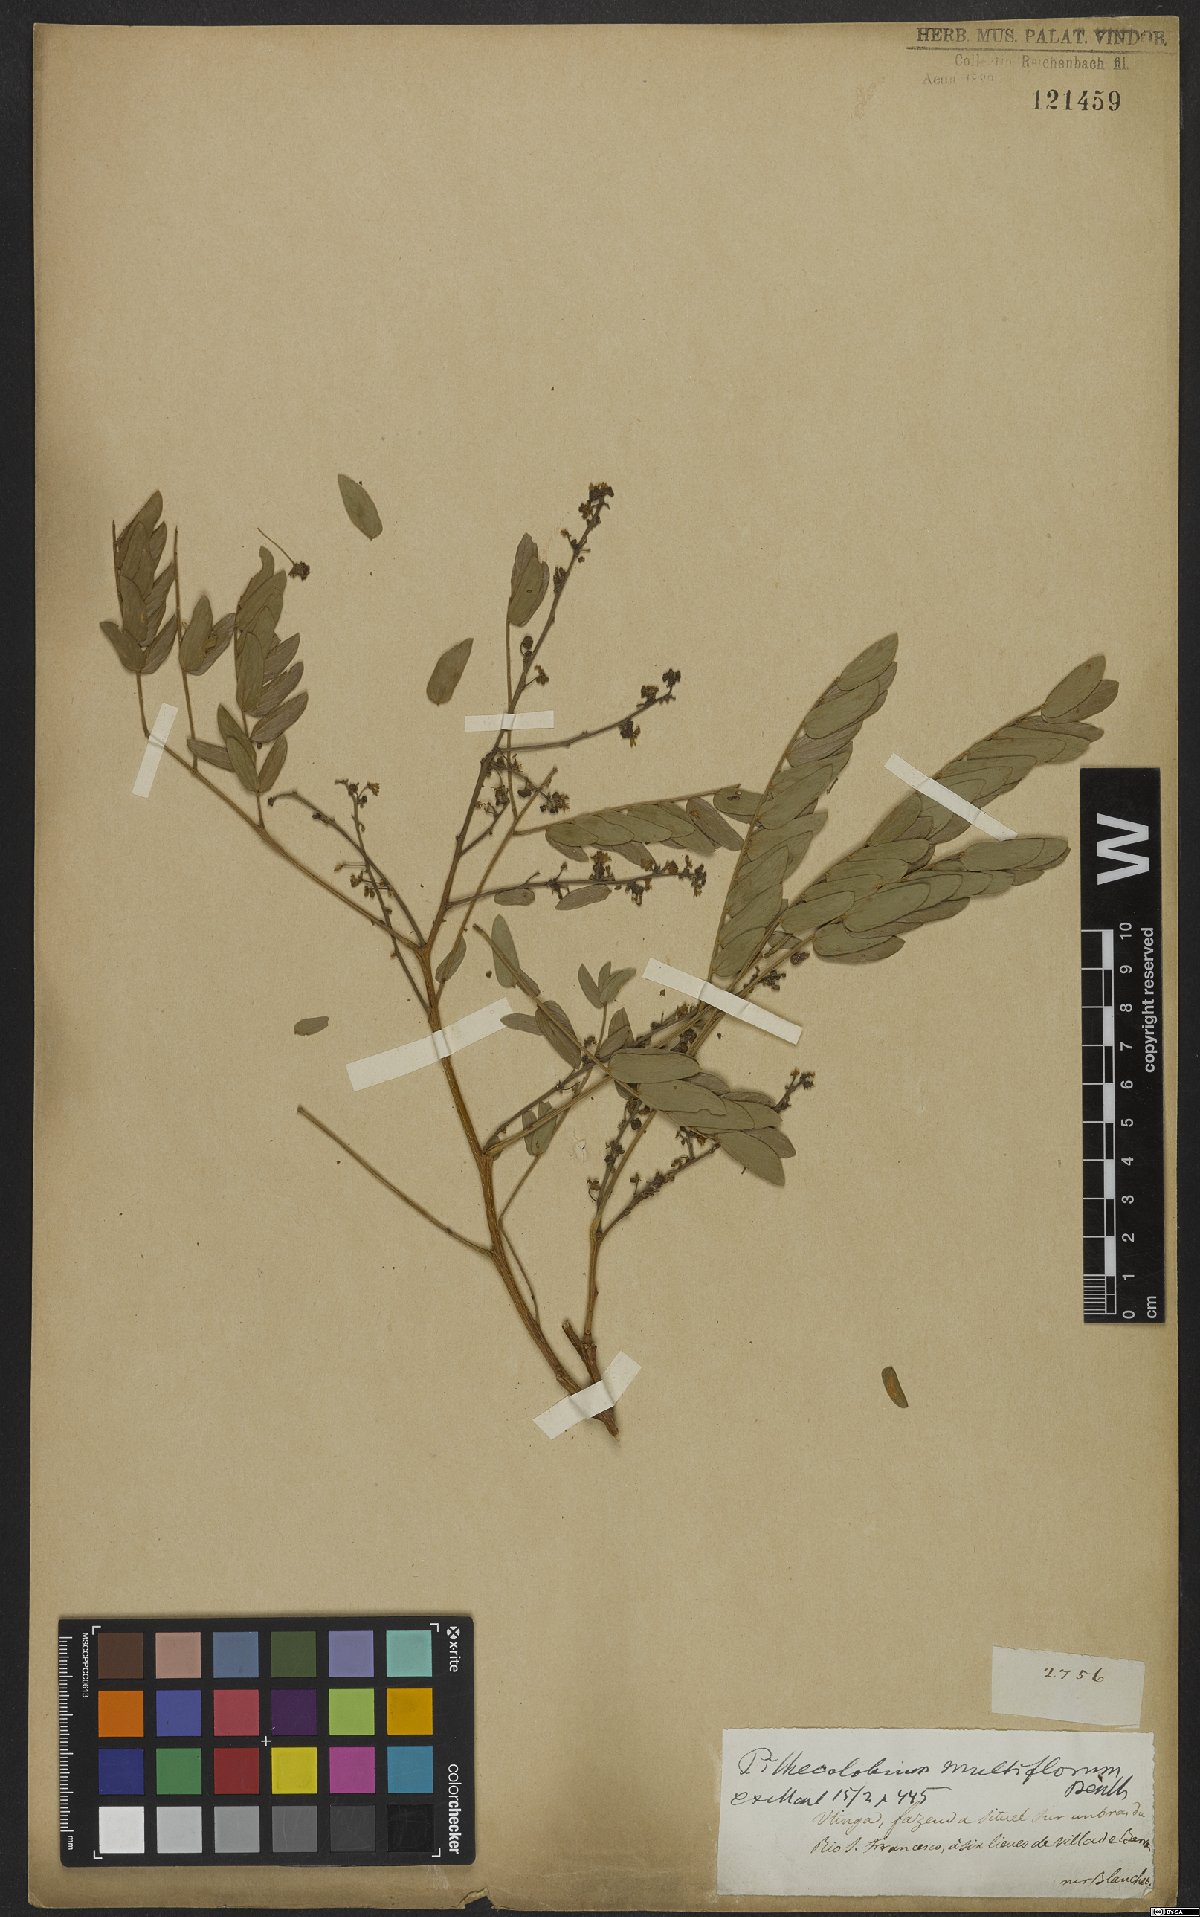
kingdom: Plantae
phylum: Tracheophyta
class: Magnoliopsida
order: Fabales
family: Fabaceae
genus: Albizia
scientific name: Albizia multiflora
